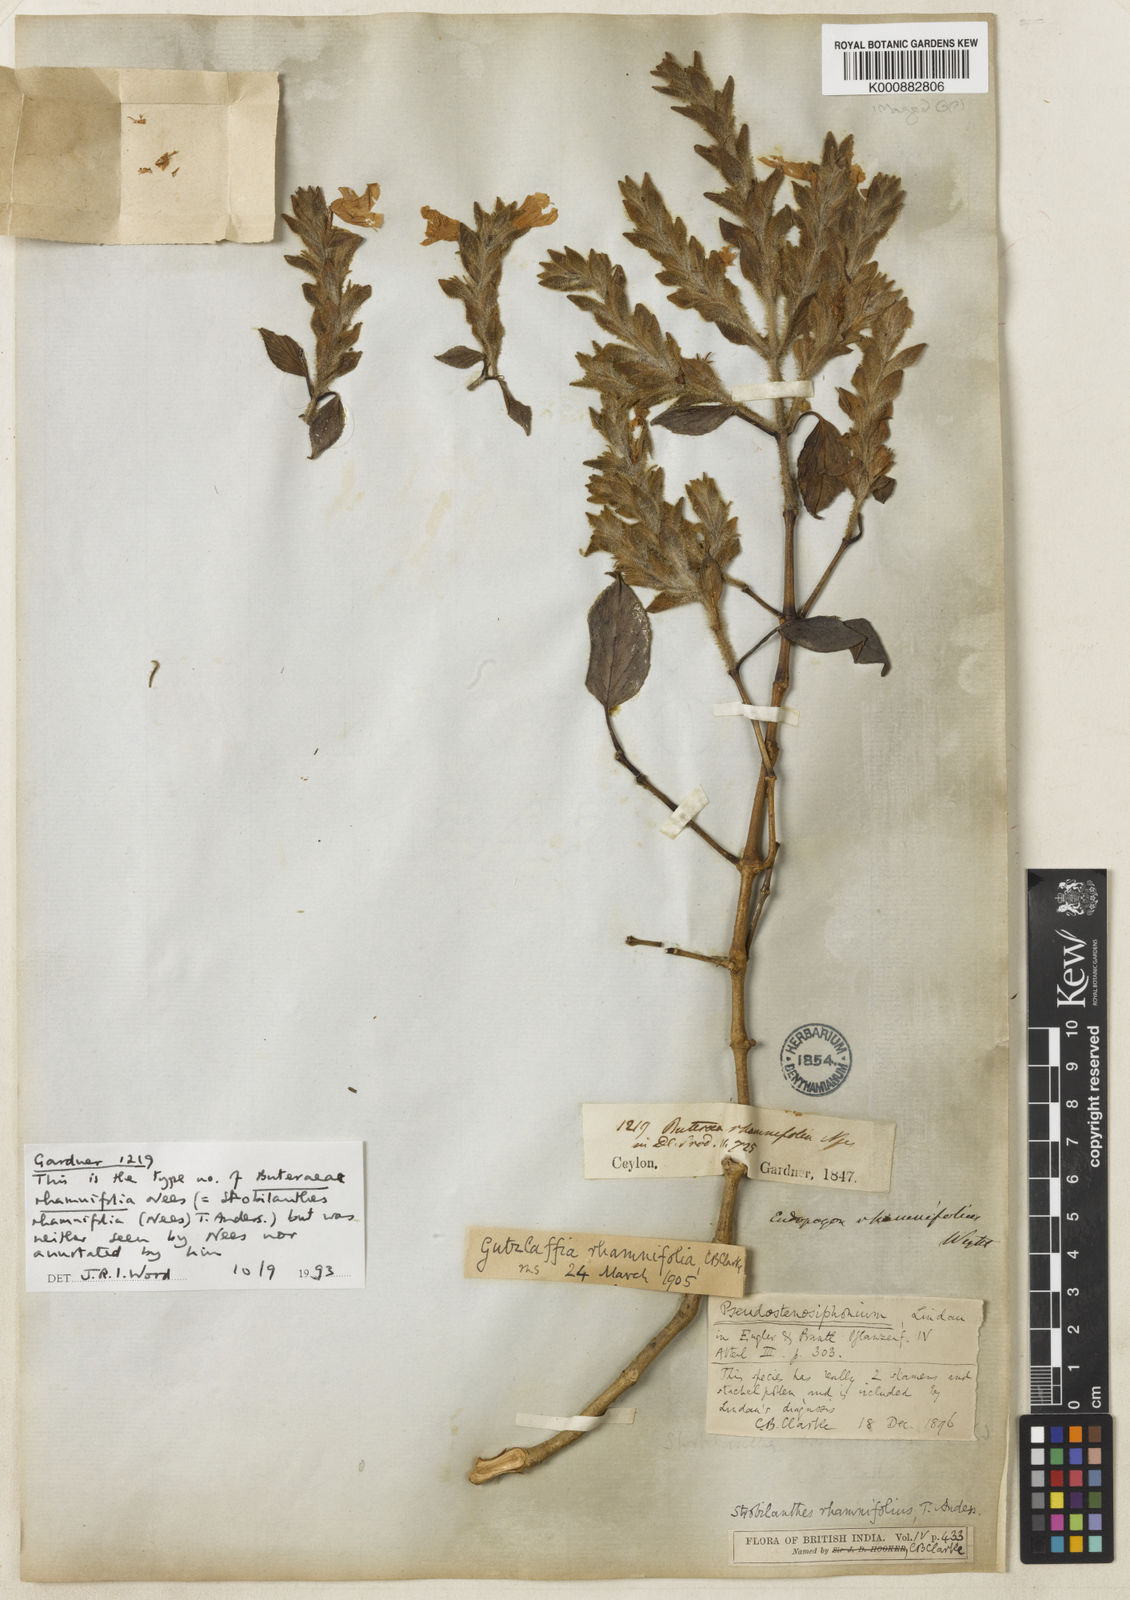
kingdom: Plantae
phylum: Tracheophyta
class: Magnoliopsida
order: Lamiales
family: Acanthaceae
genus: Strobilanthes
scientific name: Strobilanthes rhamnifolia
